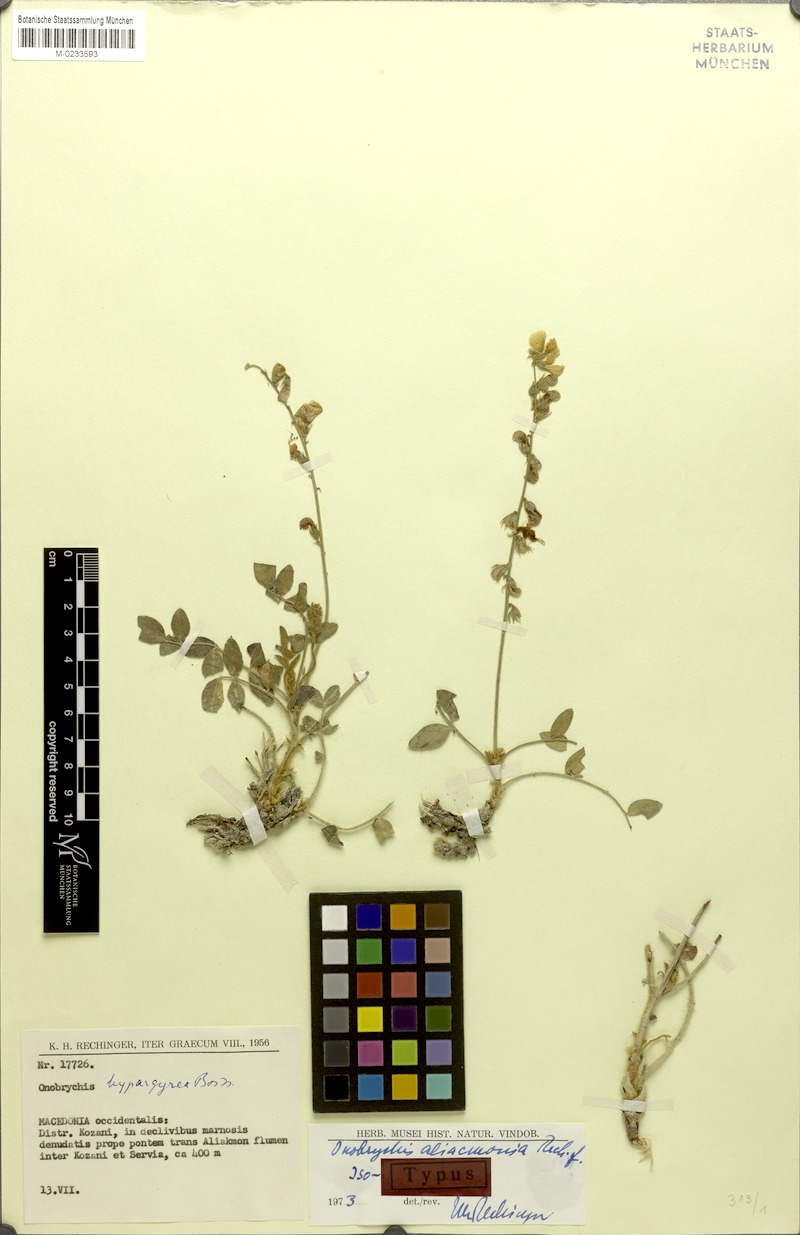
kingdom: Plantae
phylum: Tracheophyta
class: Magnoliopsida
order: Fabales
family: Fabaceae
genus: Onobrychis
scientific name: Onobrychis aliacmonia
